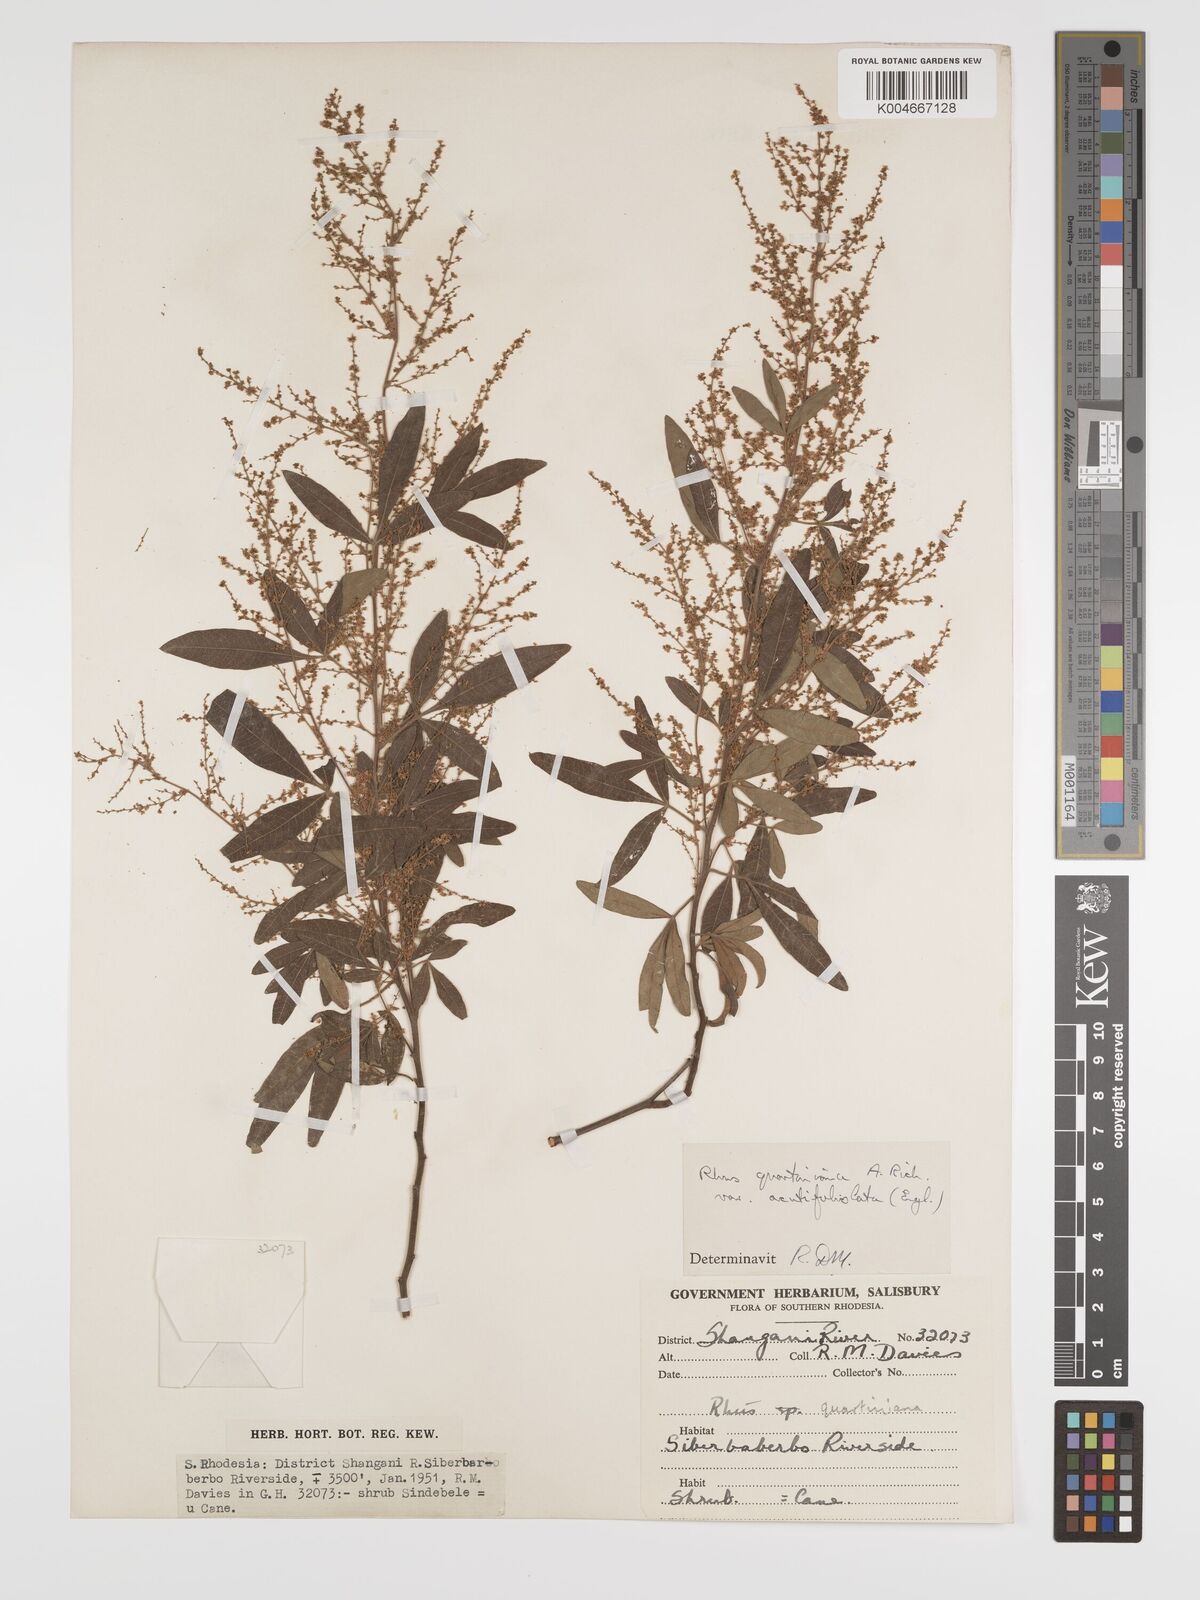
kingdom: Plantae
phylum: Tracheophyta
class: Magnoliopsida
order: Sapindales
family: Anacardiaceae
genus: Searsia
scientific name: Searsia quartiniana
